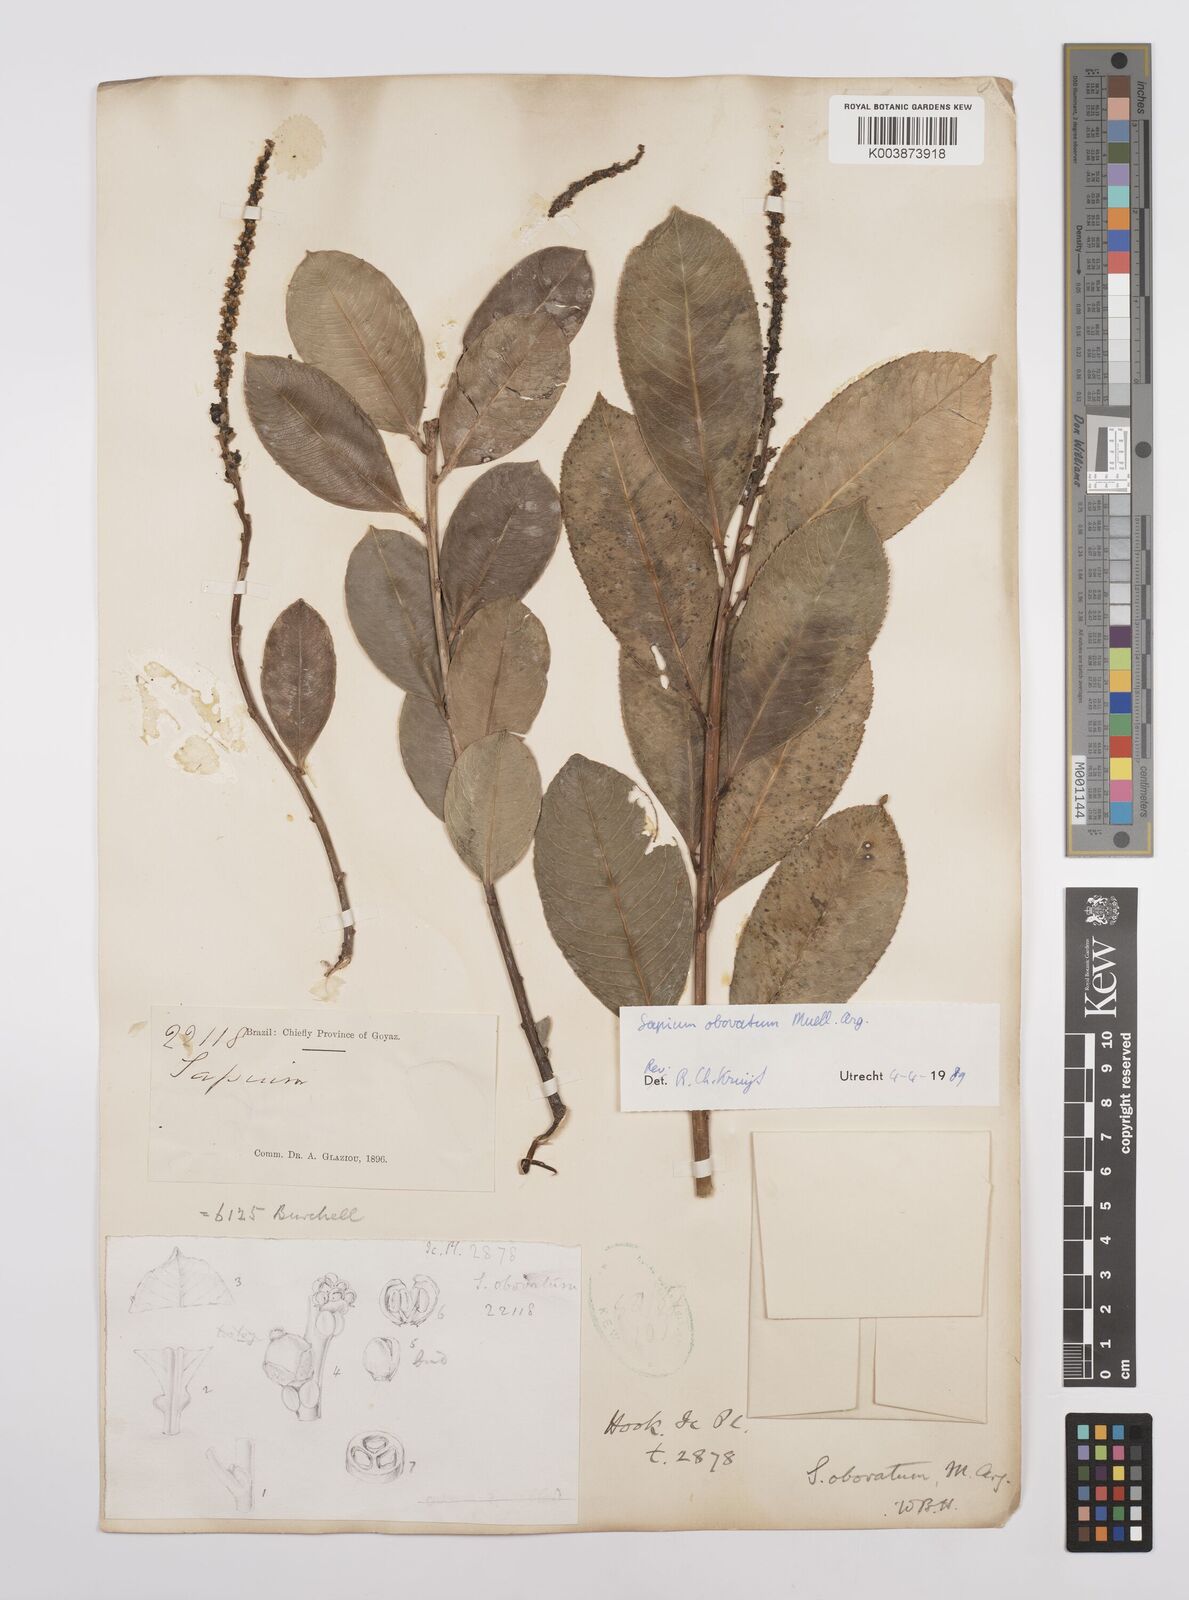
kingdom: Plantae
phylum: Tracheophyta
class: Magnoliopsida
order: Malpighiales
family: Euphorbiaceae
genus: Sapium
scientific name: Sapium obovatum
